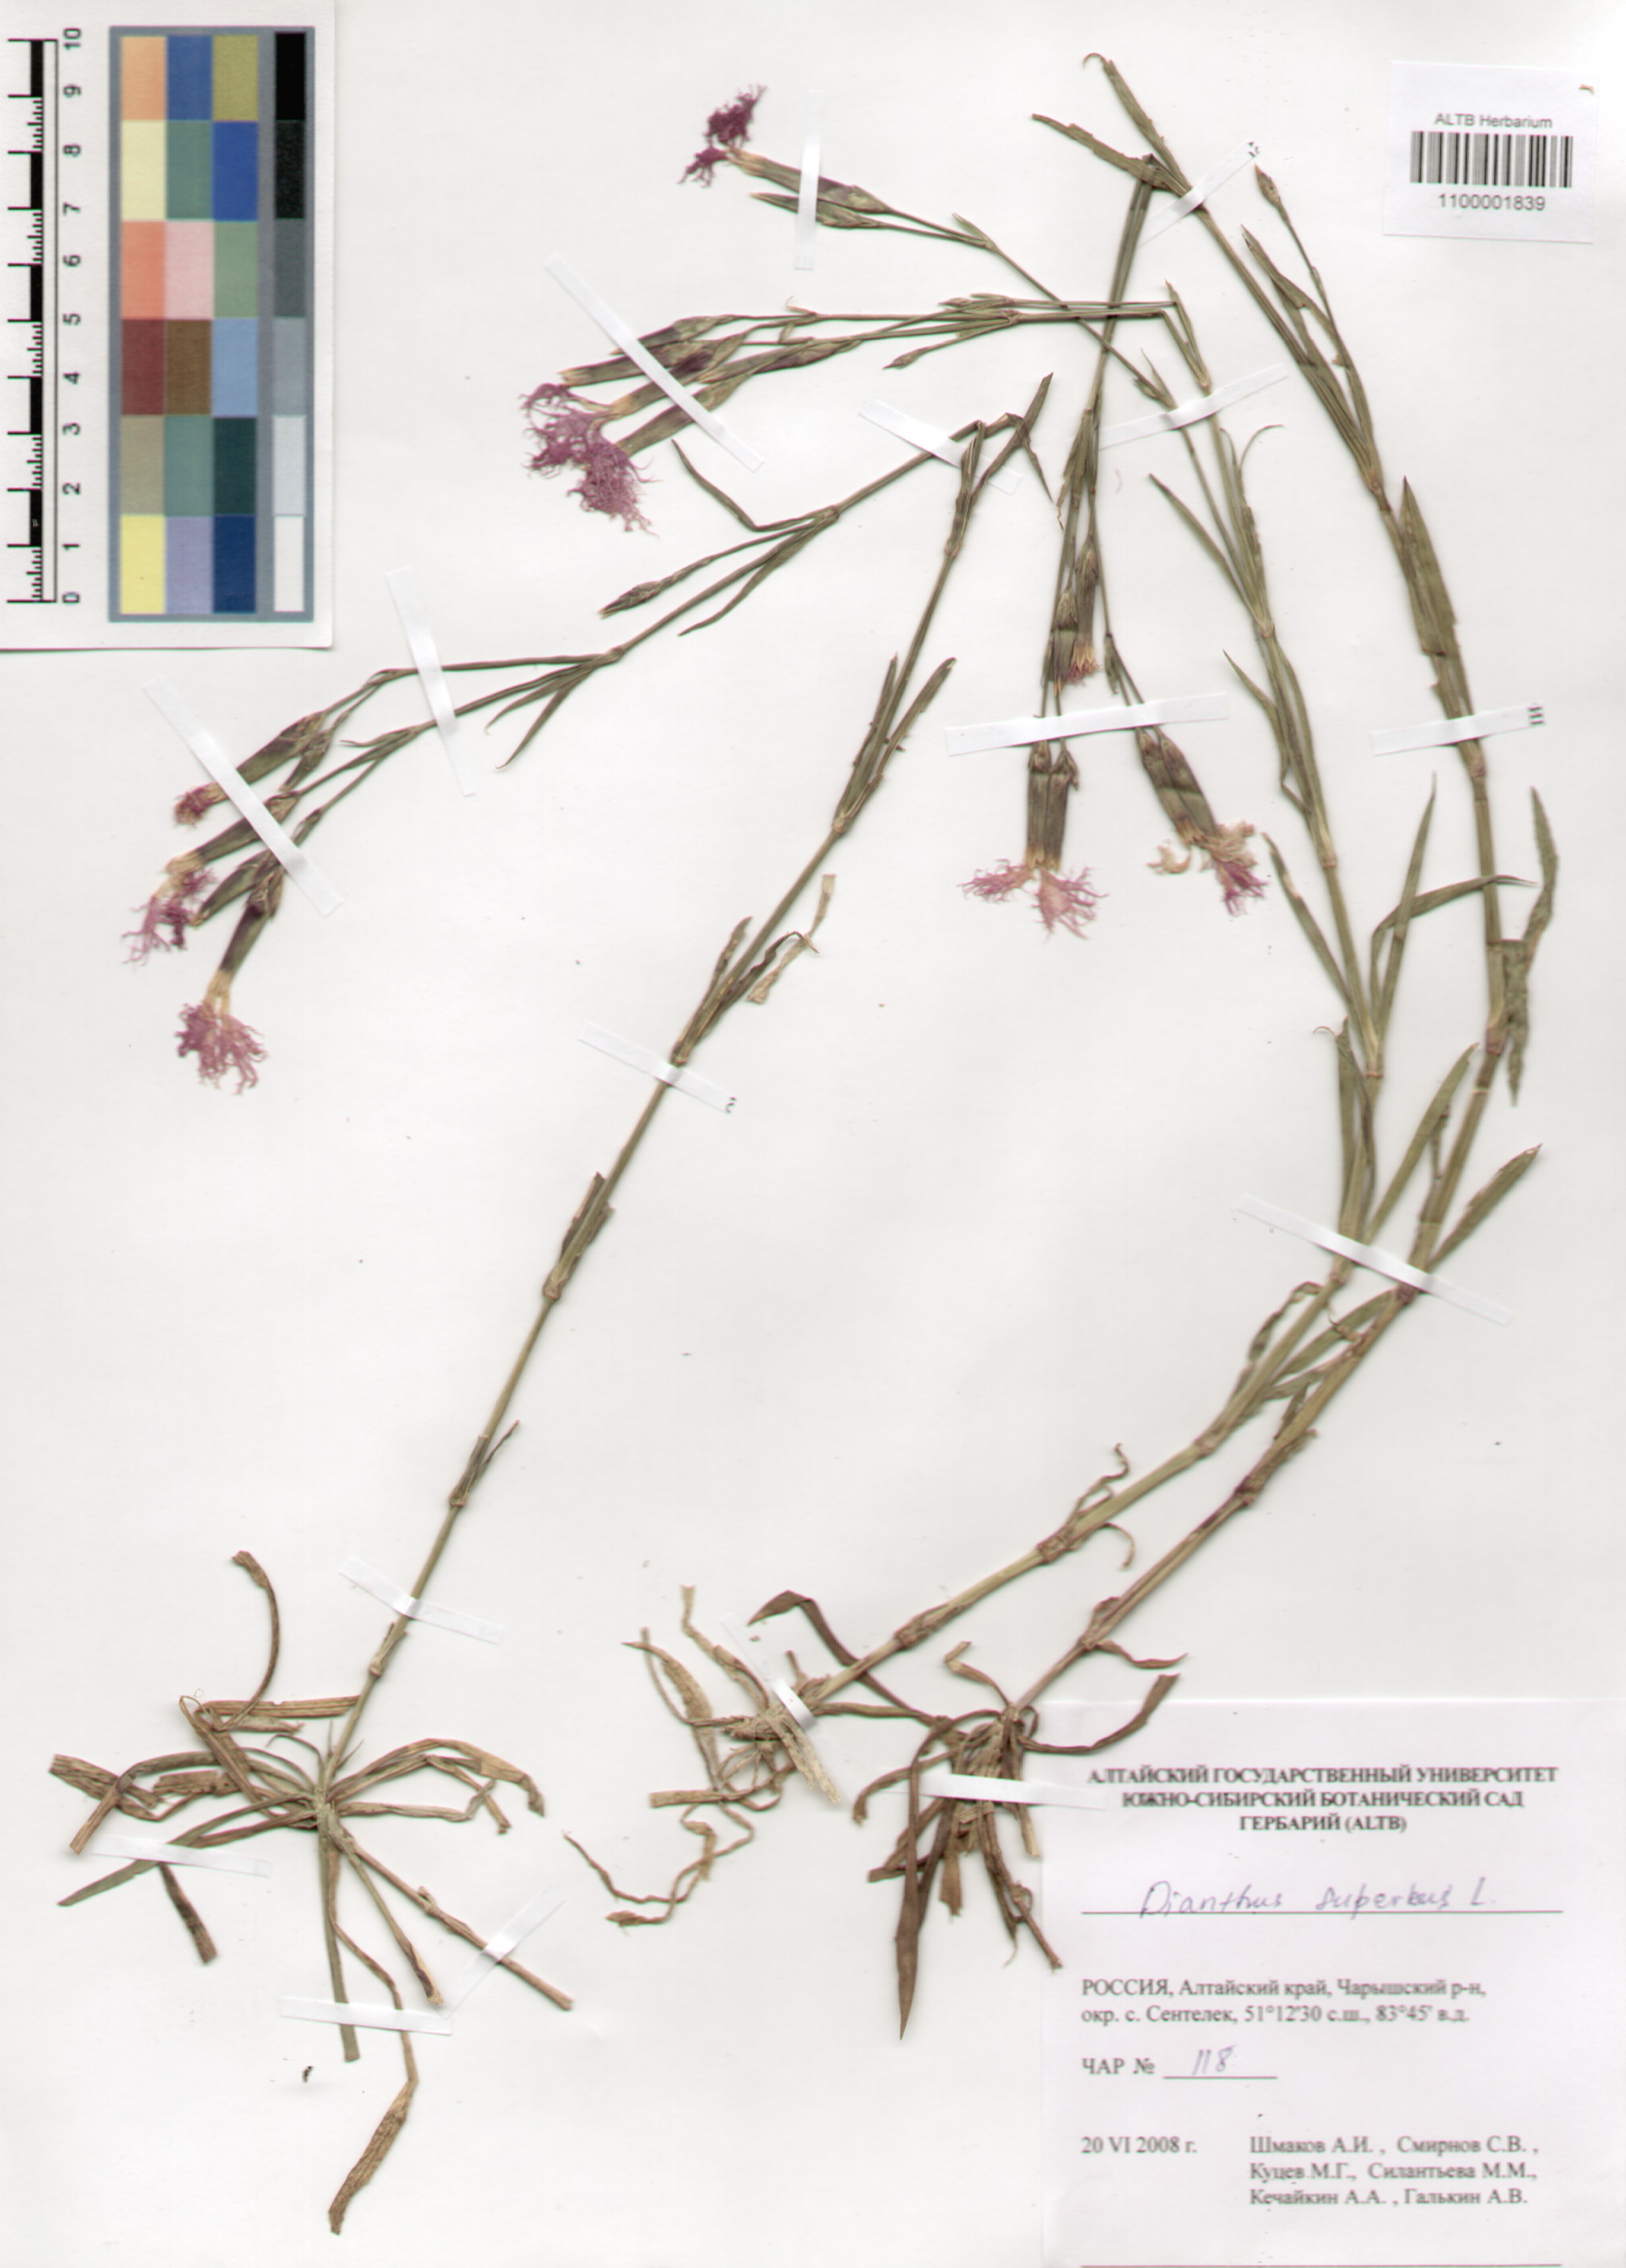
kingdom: Plantae
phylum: Tracheophyta
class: Magnoliopsida
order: Caryophyllales
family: Caryophyllaceae
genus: Dianthus
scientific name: Dianthus superbus
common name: Fringed pink
